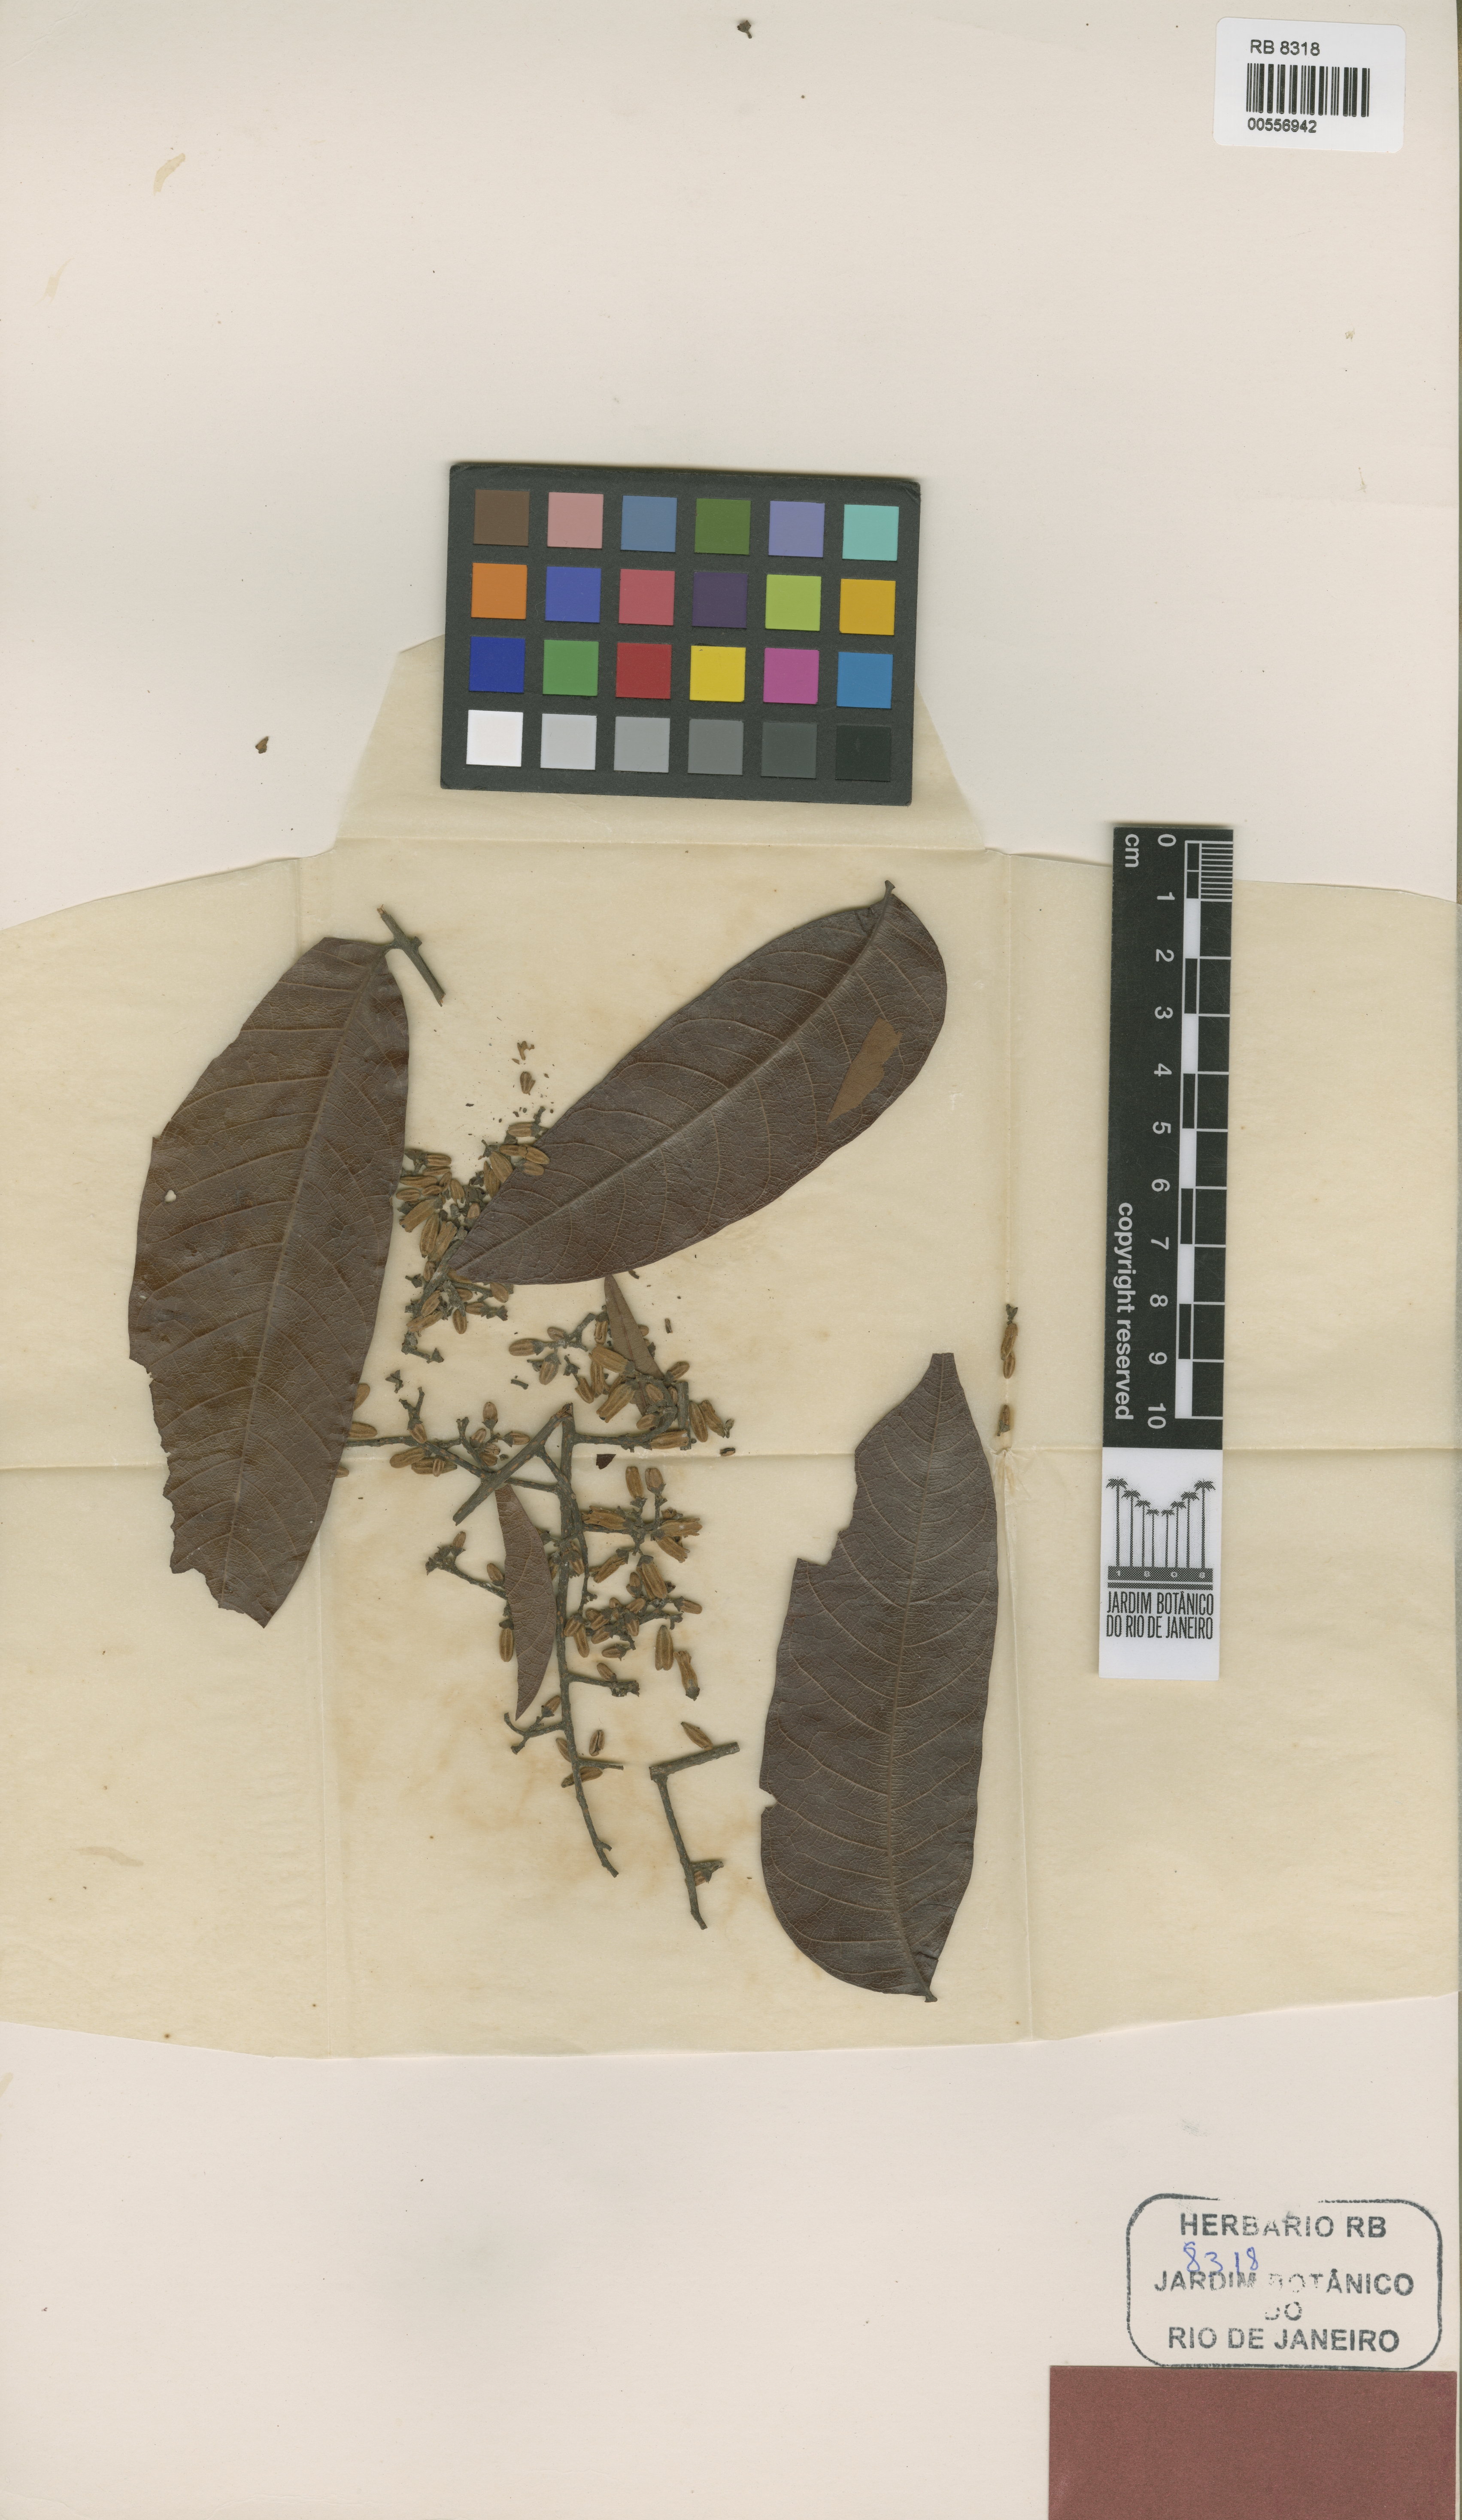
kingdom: Plantae
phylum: Tracheophyta
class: Magnoliopsida
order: Sapindales
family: Meliaceae
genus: Cedrela
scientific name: Cedrela fissilis
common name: Argentine cedar
